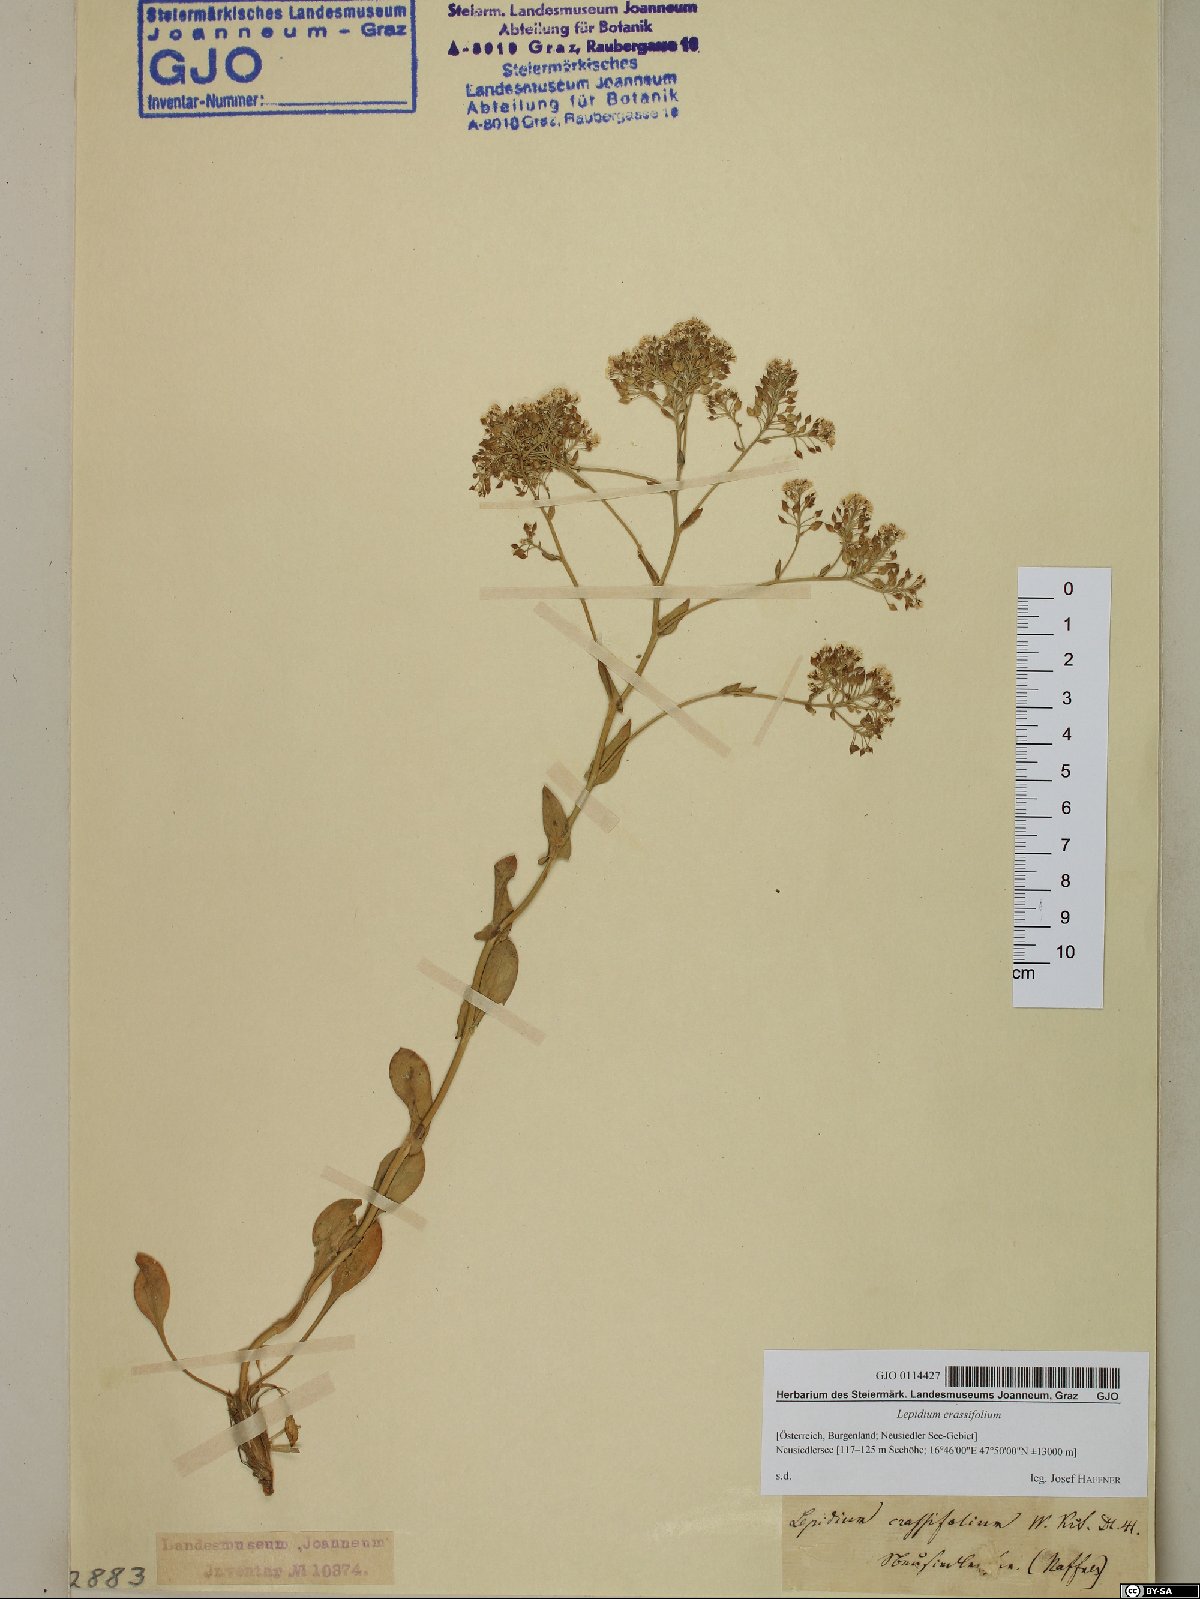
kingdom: Plantae
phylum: Tracheophyta
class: Magnoliopsida
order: Brassicales
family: Brassicaceae
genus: Lepidium
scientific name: Lepidium cartilagineum
